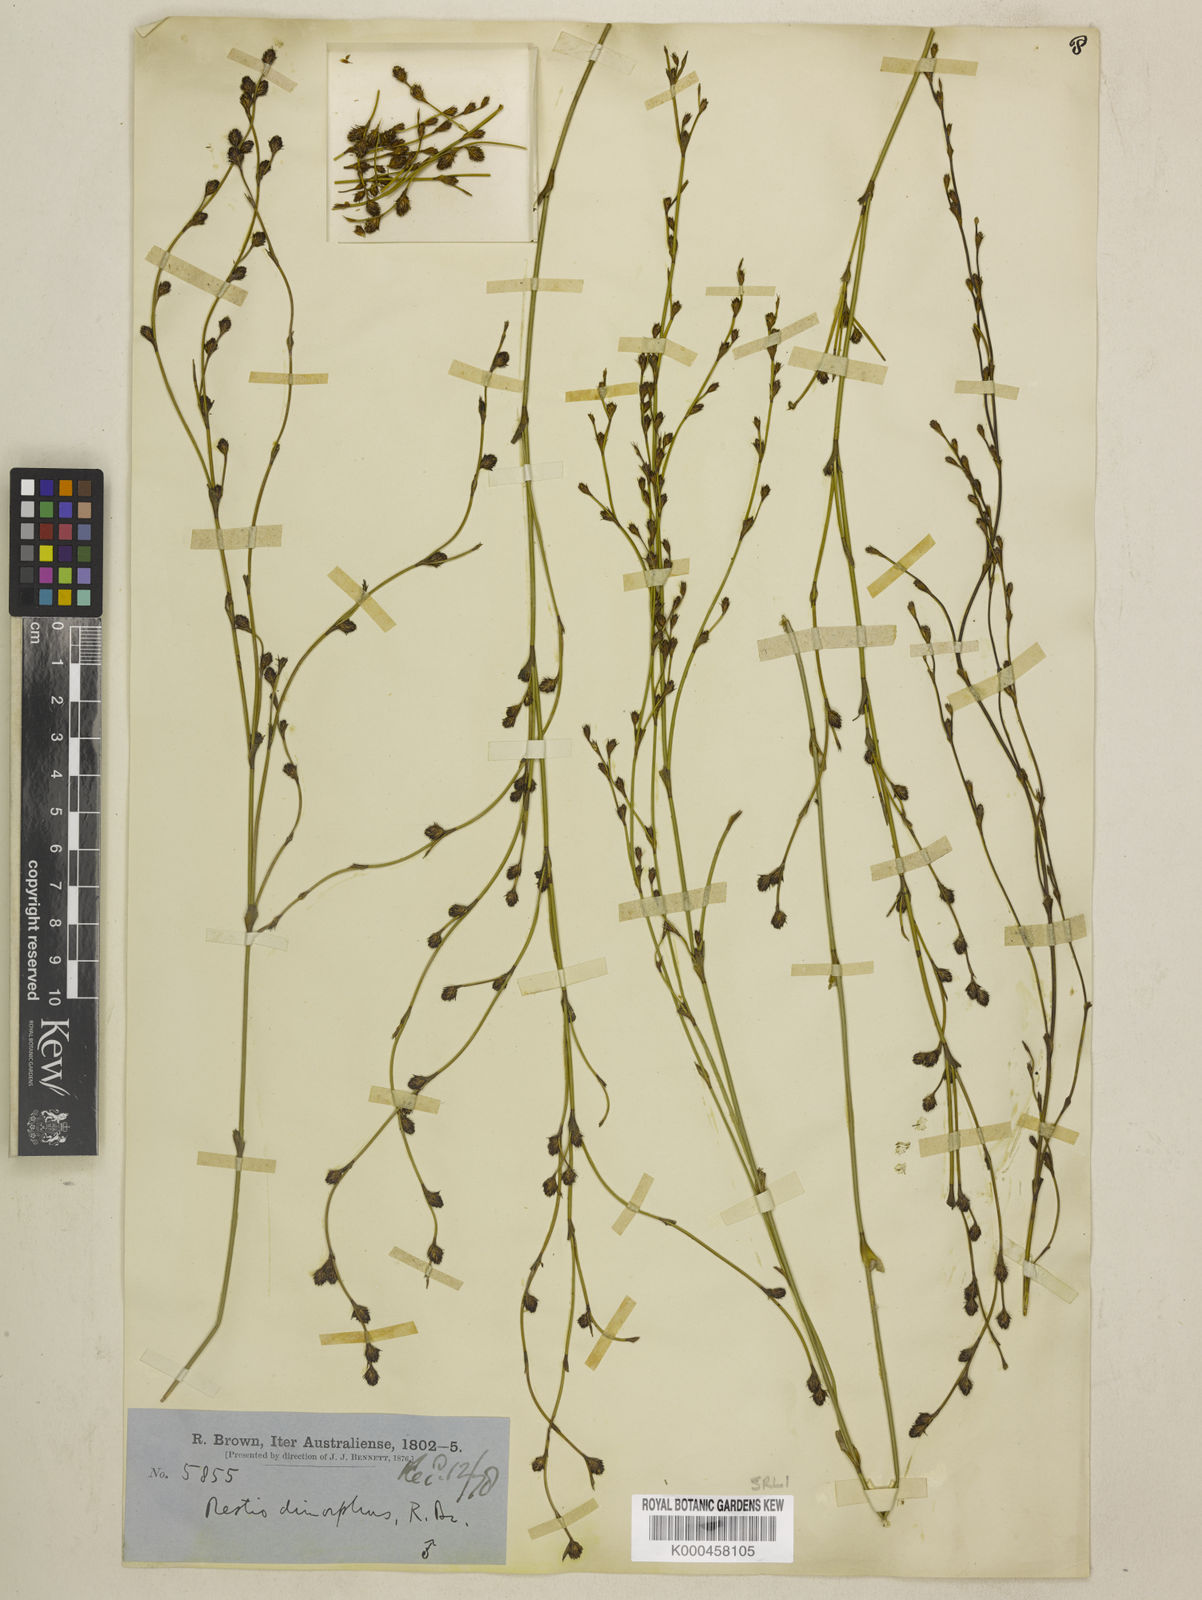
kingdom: Plantae
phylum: Tracheophyta
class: Liliopsida
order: Poales
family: Restionaceae
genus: Chordifex
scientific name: Chordifex dimorphus
